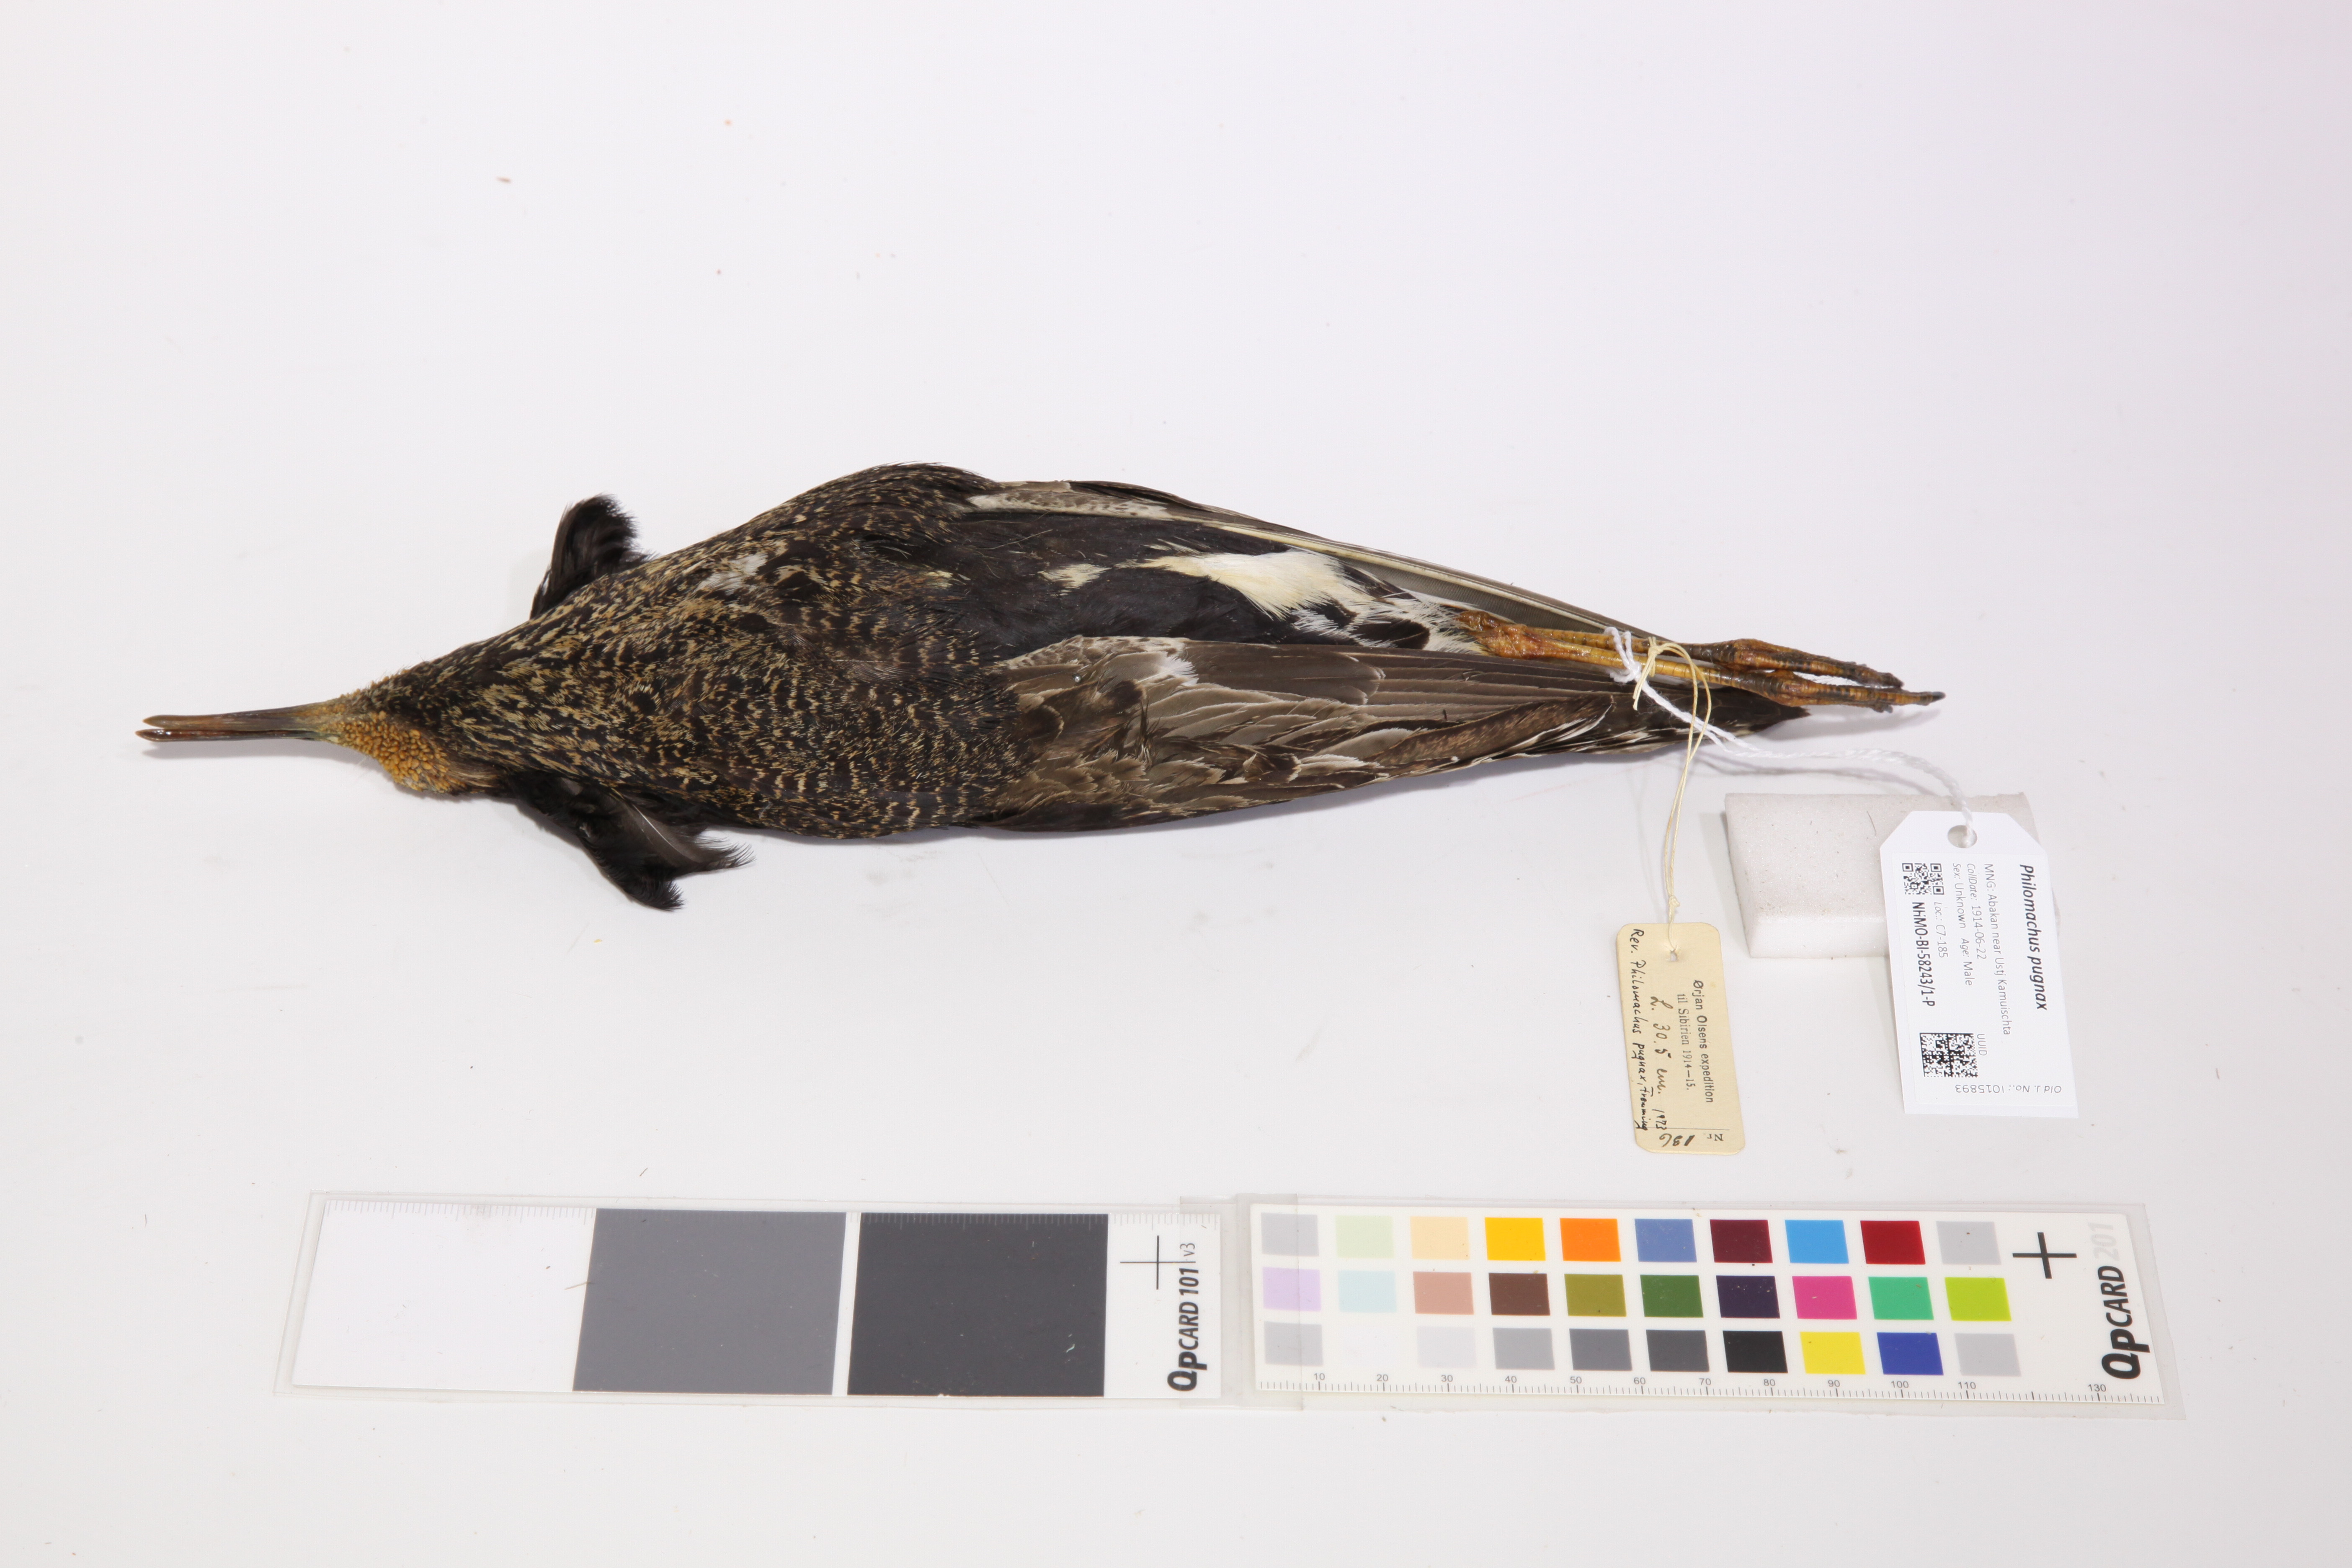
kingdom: Animalia
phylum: Chordata
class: Aves
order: Charadriiformes
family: Scolopacidae
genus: Calidris
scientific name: Calidris pugnax
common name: Ruff
